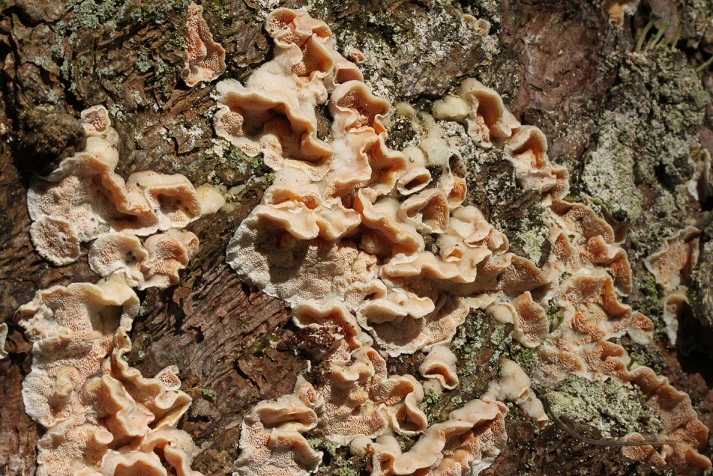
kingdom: Fungi
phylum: Basidiomycota
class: Agaricomycetes
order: Polyporales
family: Incrustoporiaceae
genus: Skeletocutis
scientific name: Skeletocutis amorpha
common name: orange krystalporesvamp
